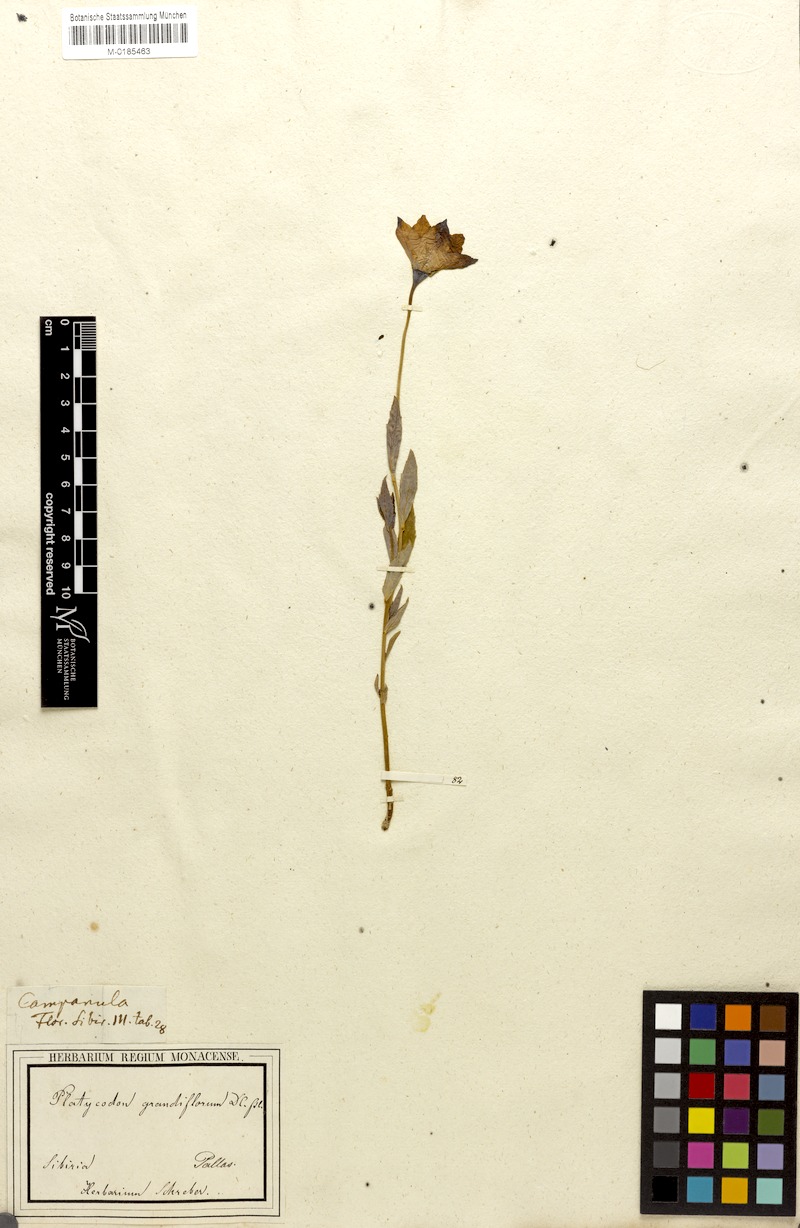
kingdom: Plantae
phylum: Tracheophyta
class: Magnoliopsida
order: Asterales
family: Campanulaceae
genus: Platycodon
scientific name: Platycodon grandiflorus
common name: Balloon-flower
